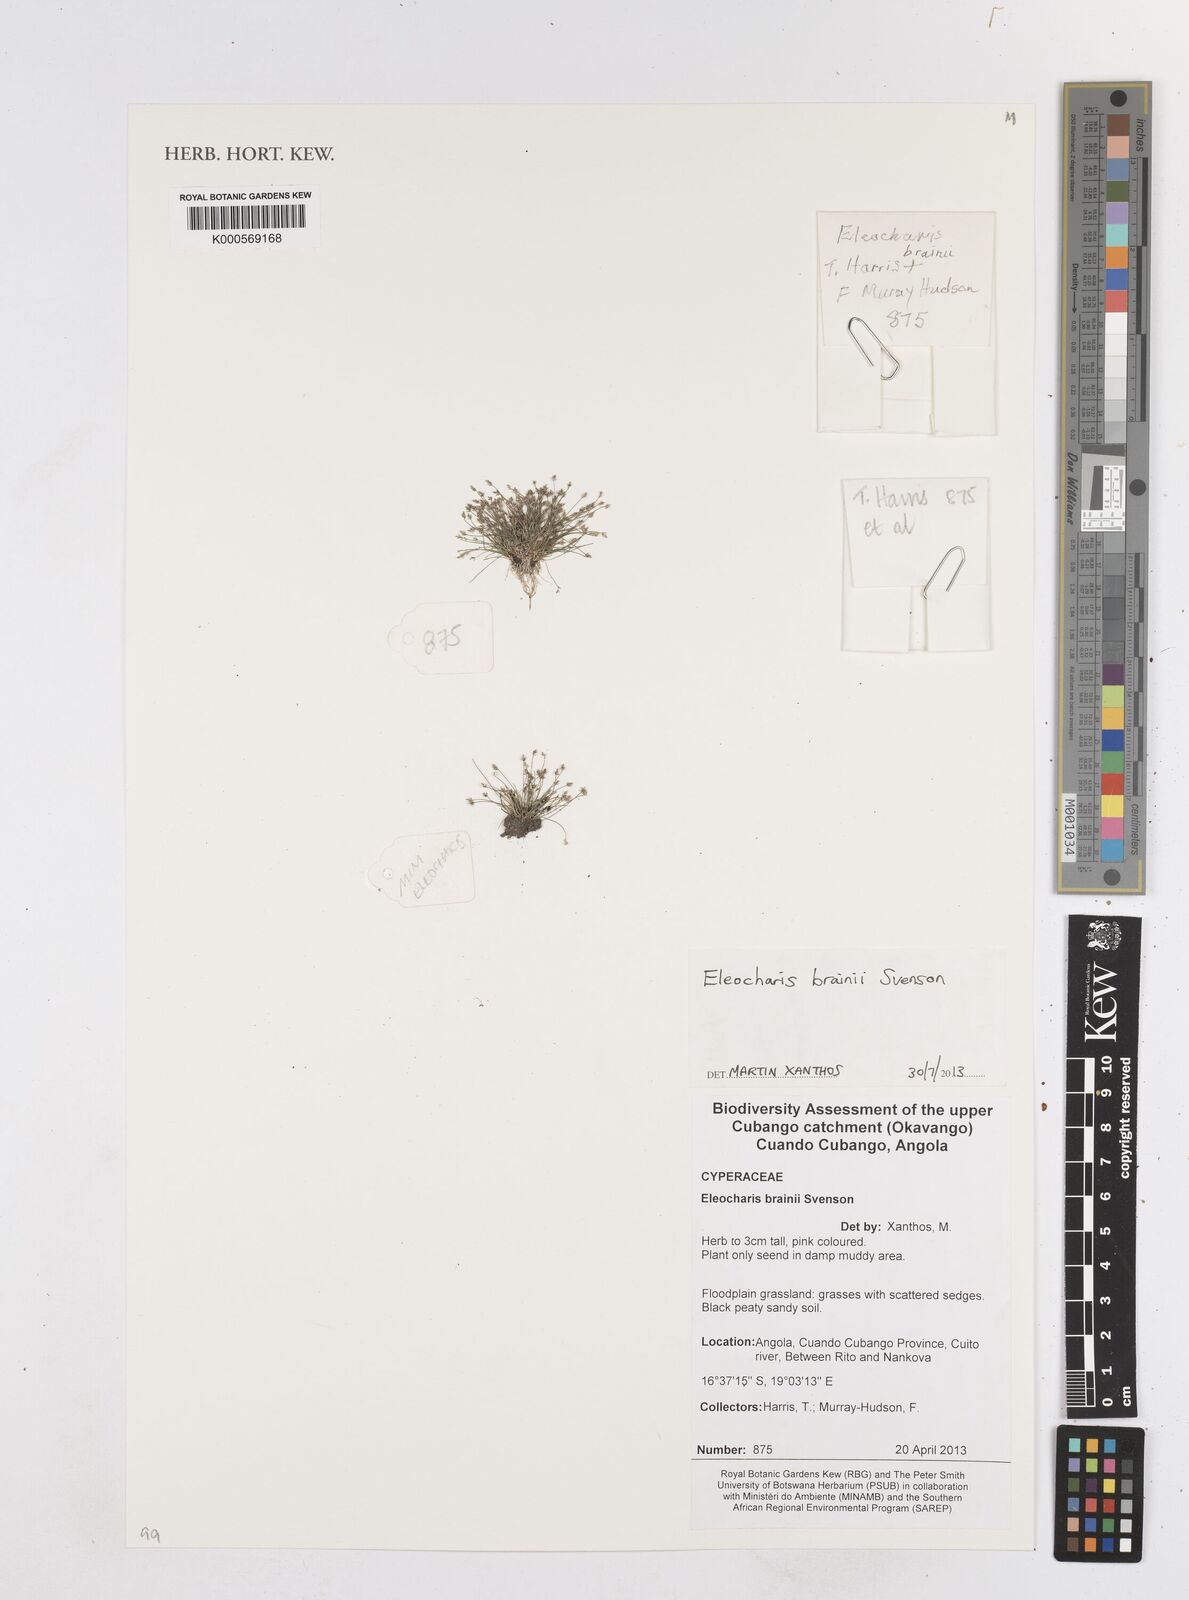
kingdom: Plantae
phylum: Tracheophyta
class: Liliopsida
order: Poales
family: Cyperaceae
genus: Eleocharis
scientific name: Eleocharis brainii
